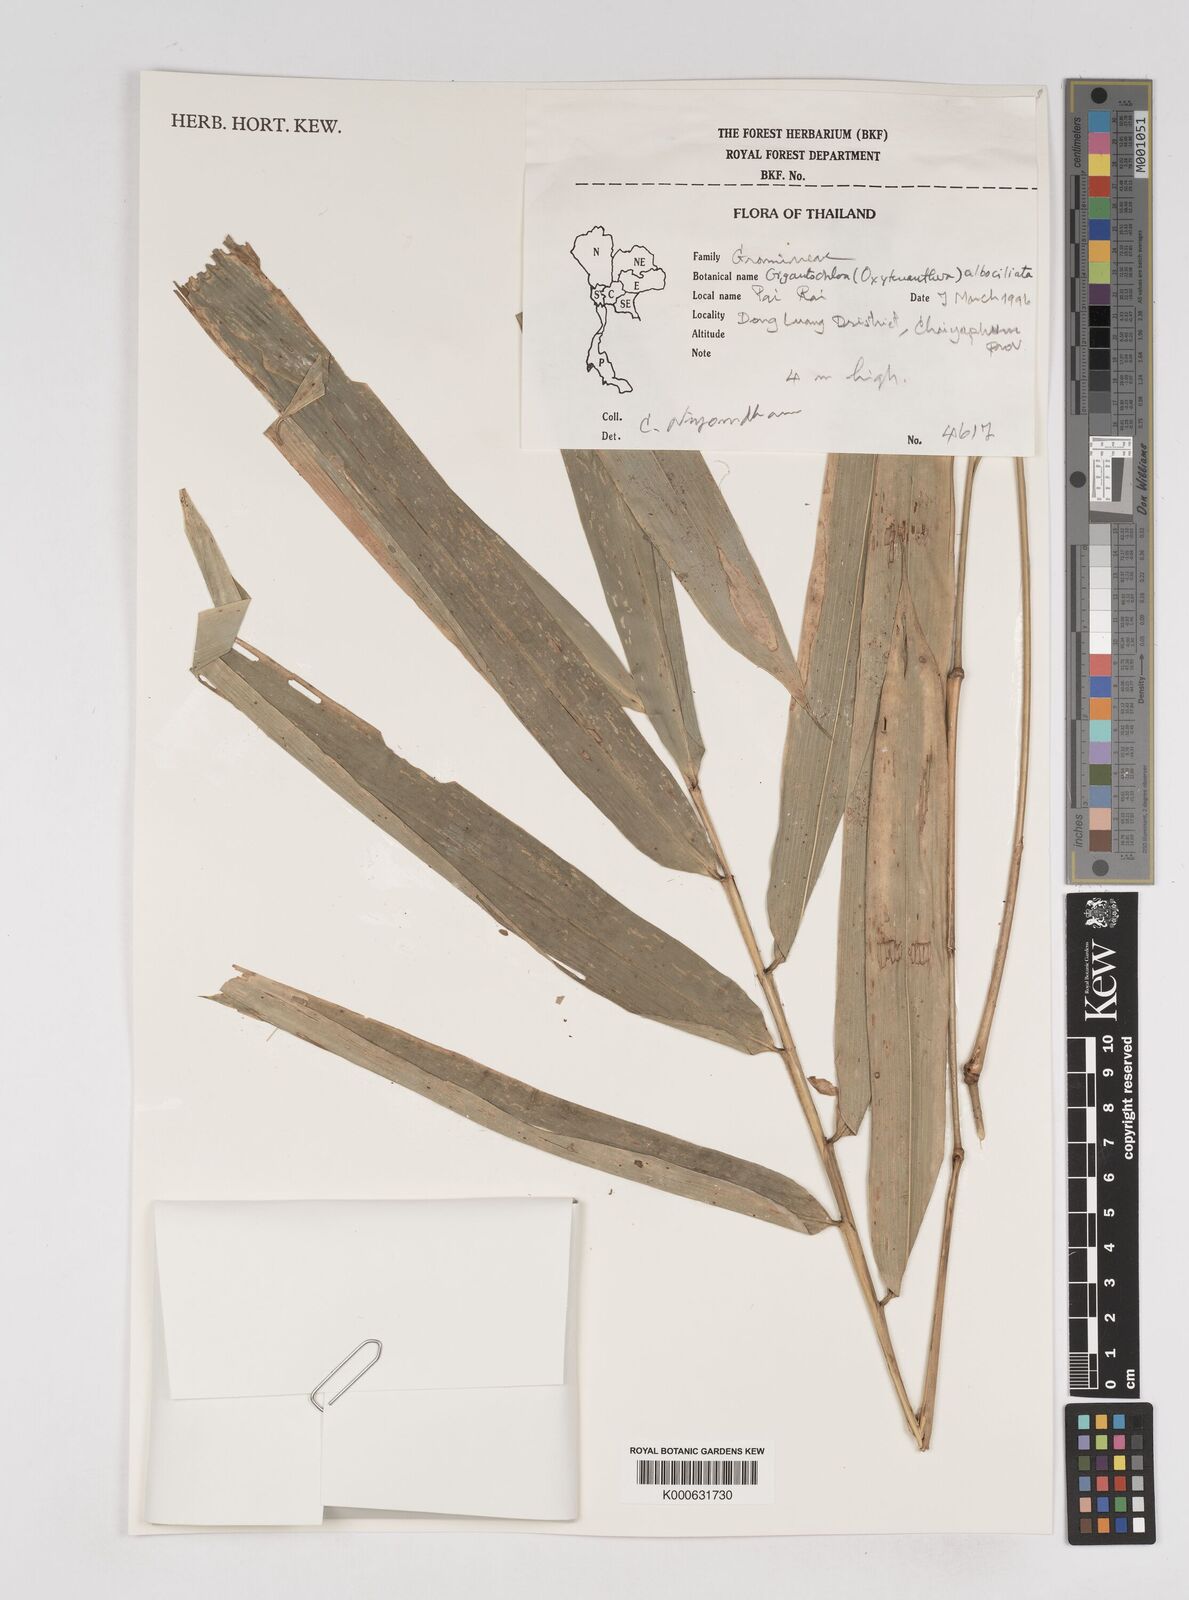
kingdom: Plantae
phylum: Tracheophyta
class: Liliopsida
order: Poales
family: Poaceae
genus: Gigantochloa
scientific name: Gigantochloa albociliata
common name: White-fringe gigantochloa
